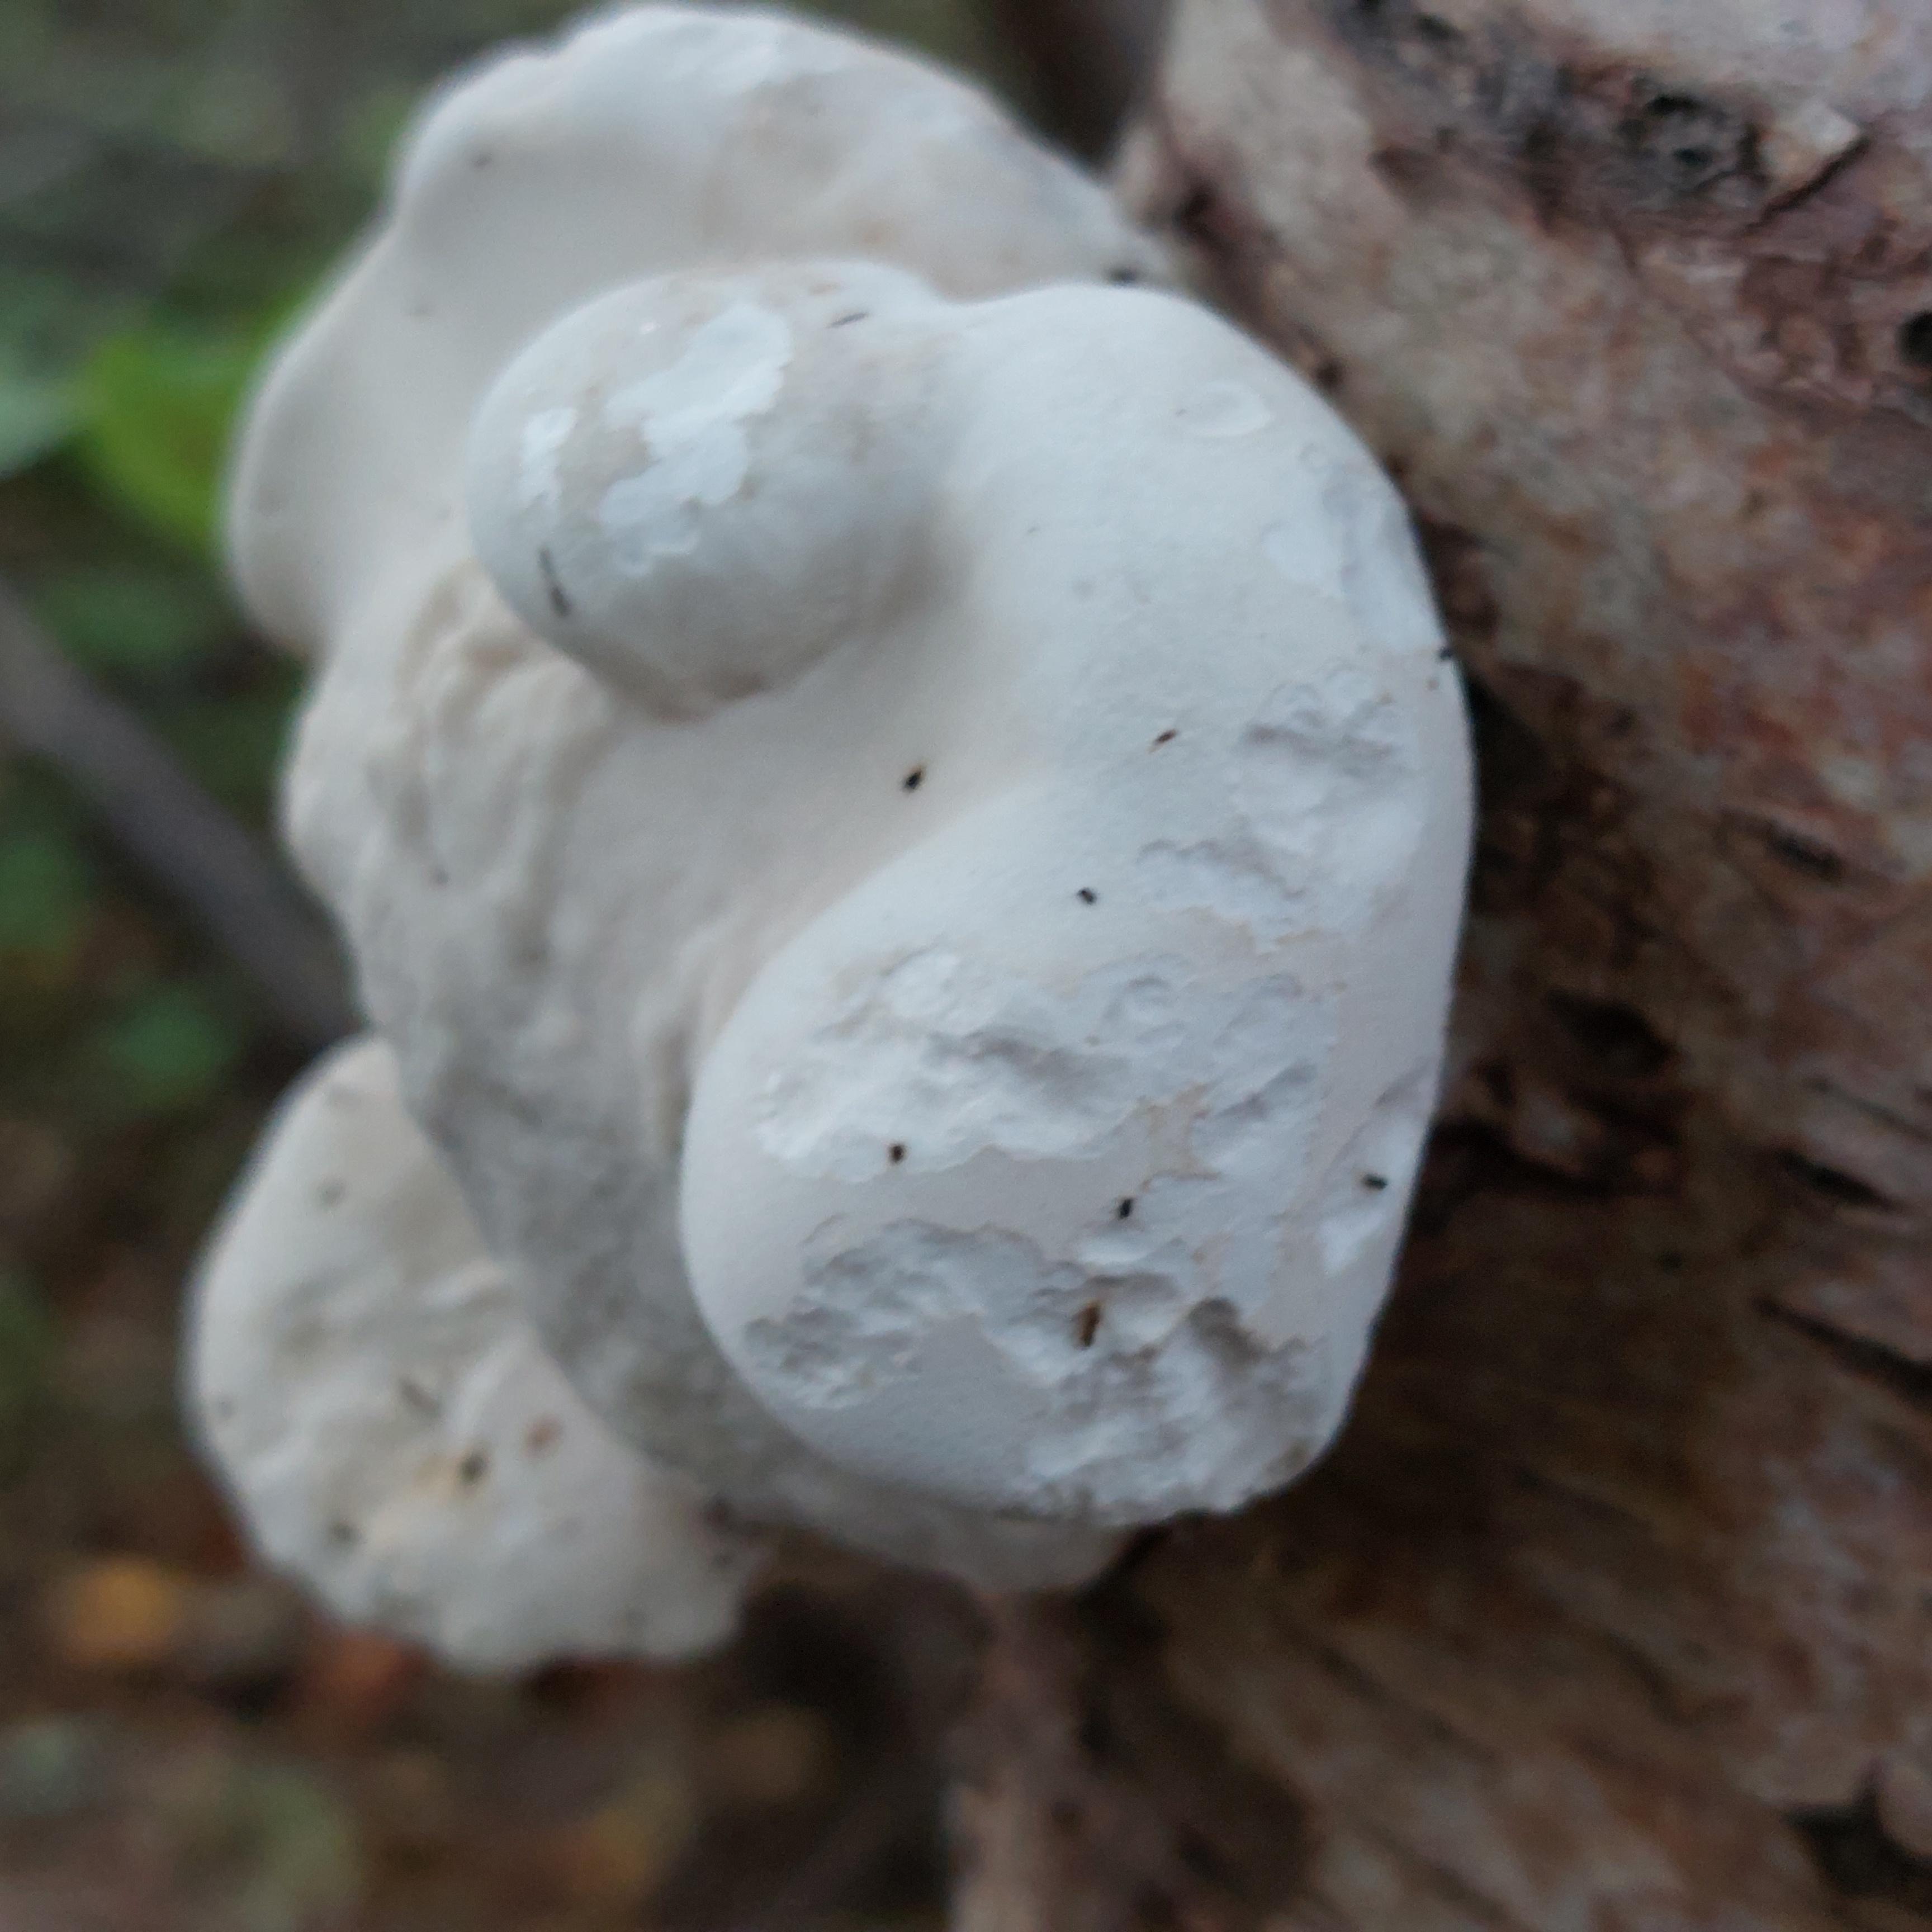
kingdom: Fungi
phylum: Basidiomycota
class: Agaricomycetes
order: Polyporales
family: Fomitopsidaceae
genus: Fomitopsis
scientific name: Fomitopsis betulina
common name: birkeporesvamp
